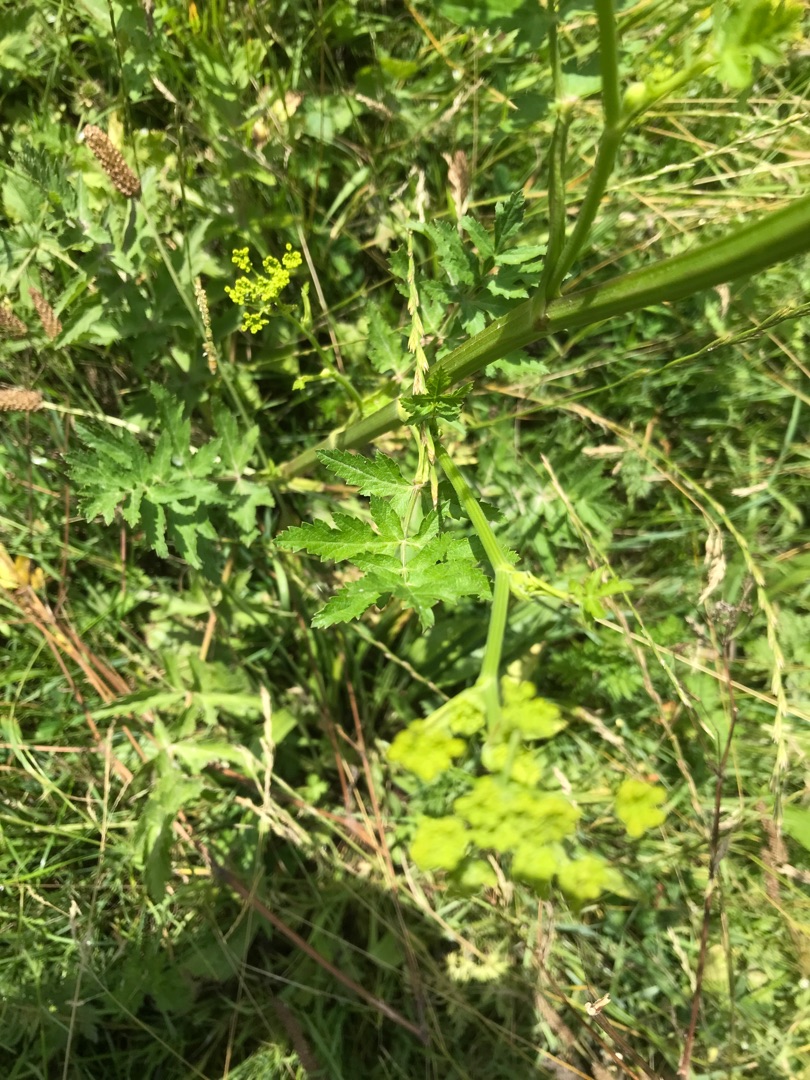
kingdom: Plantae
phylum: Tracheophyta
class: Magnoliopsida
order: Apiales
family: Apiaceae
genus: Pastinaca
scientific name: Pastinaca sativa
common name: Pastinak
